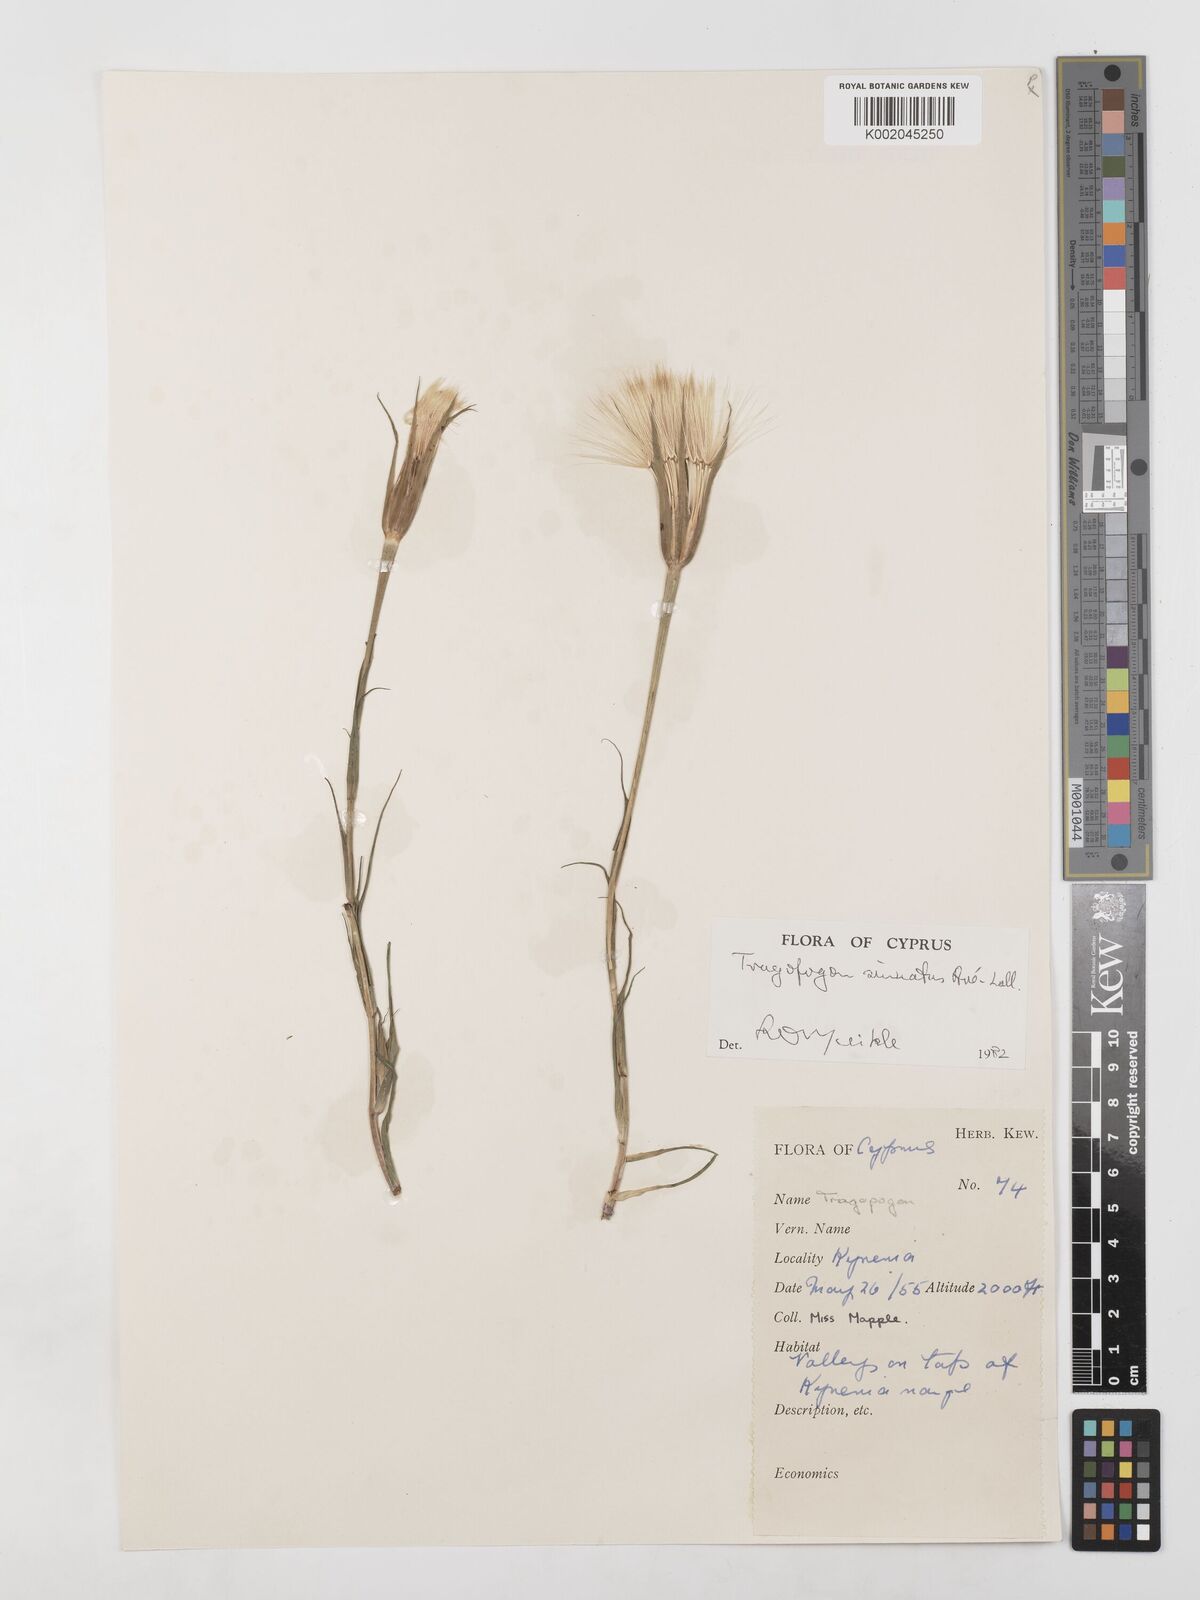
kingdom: Plantae
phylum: Tracheophyta
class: Magnoliopsida
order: Asterales
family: Asteraceae
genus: Tragopogon
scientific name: Tragopogon coelesyriacus
